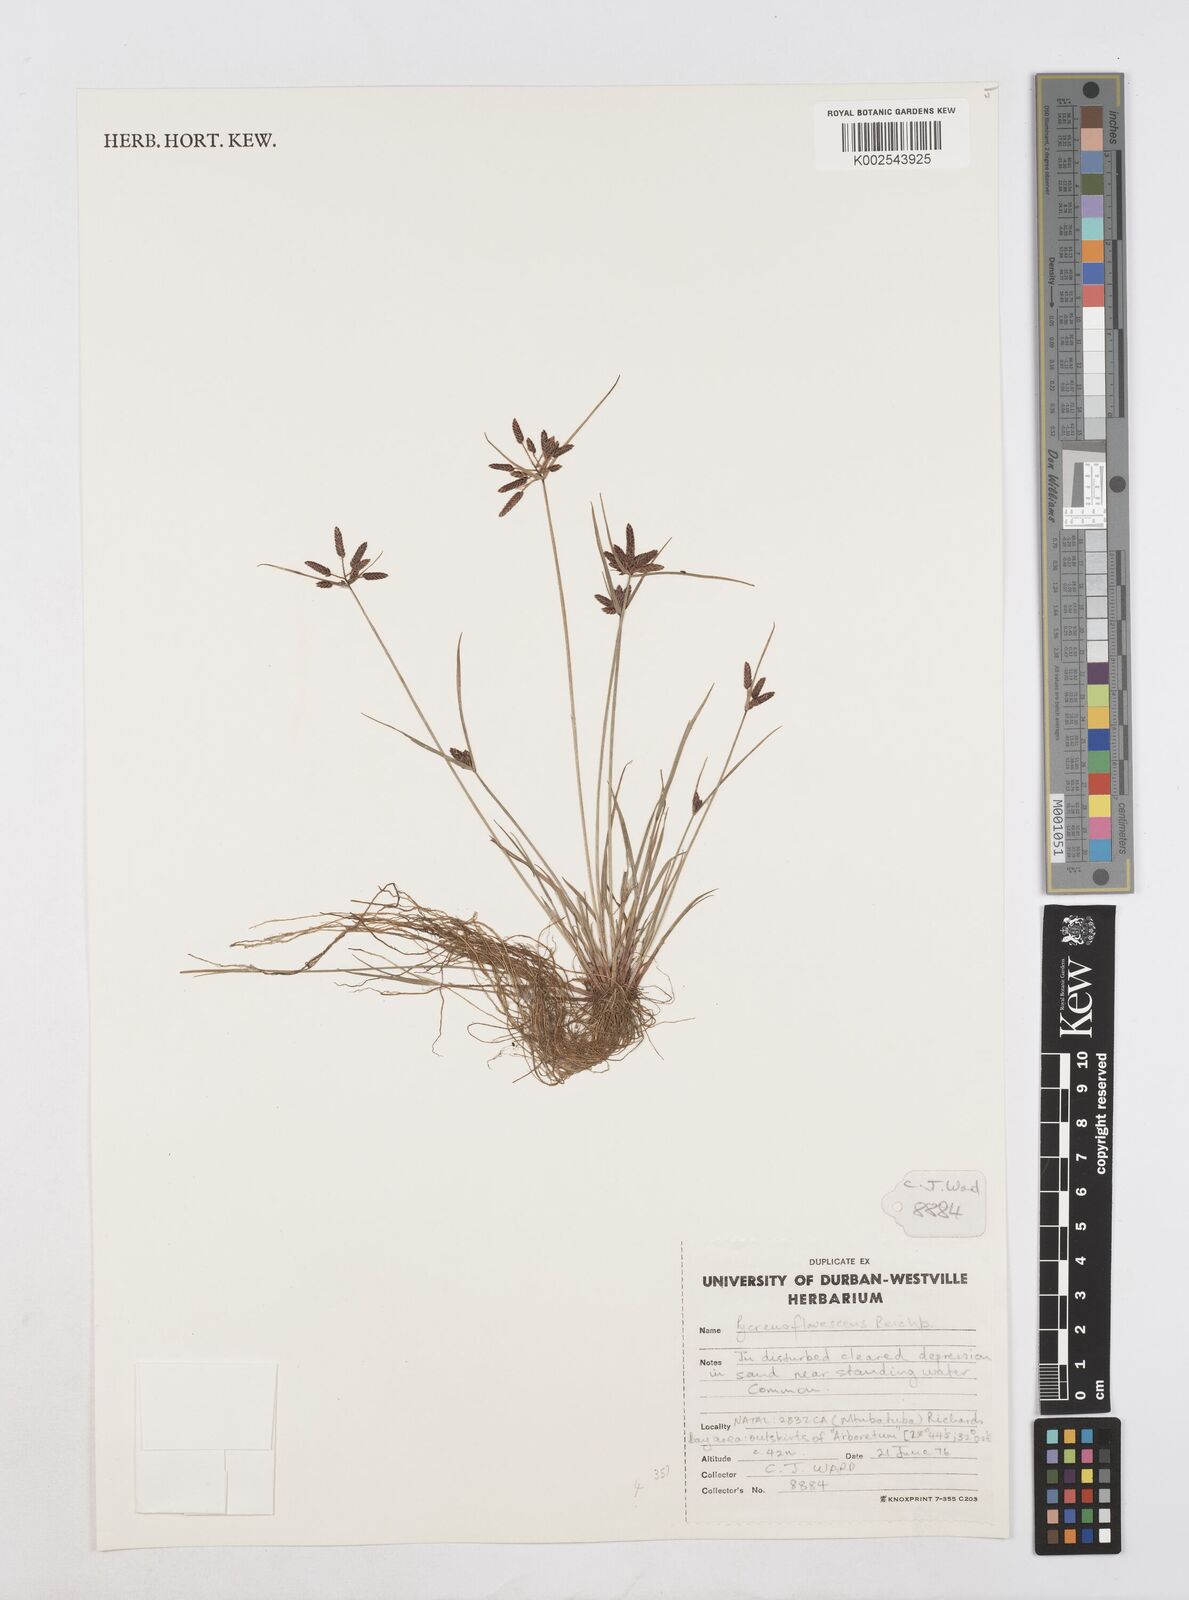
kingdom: Plantae
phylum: Tracheophyta
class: Liliopsida
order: Poales
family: Cyperaceae
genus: Cyperus
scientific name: Cyperus flavescens
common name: Yellow galingale
